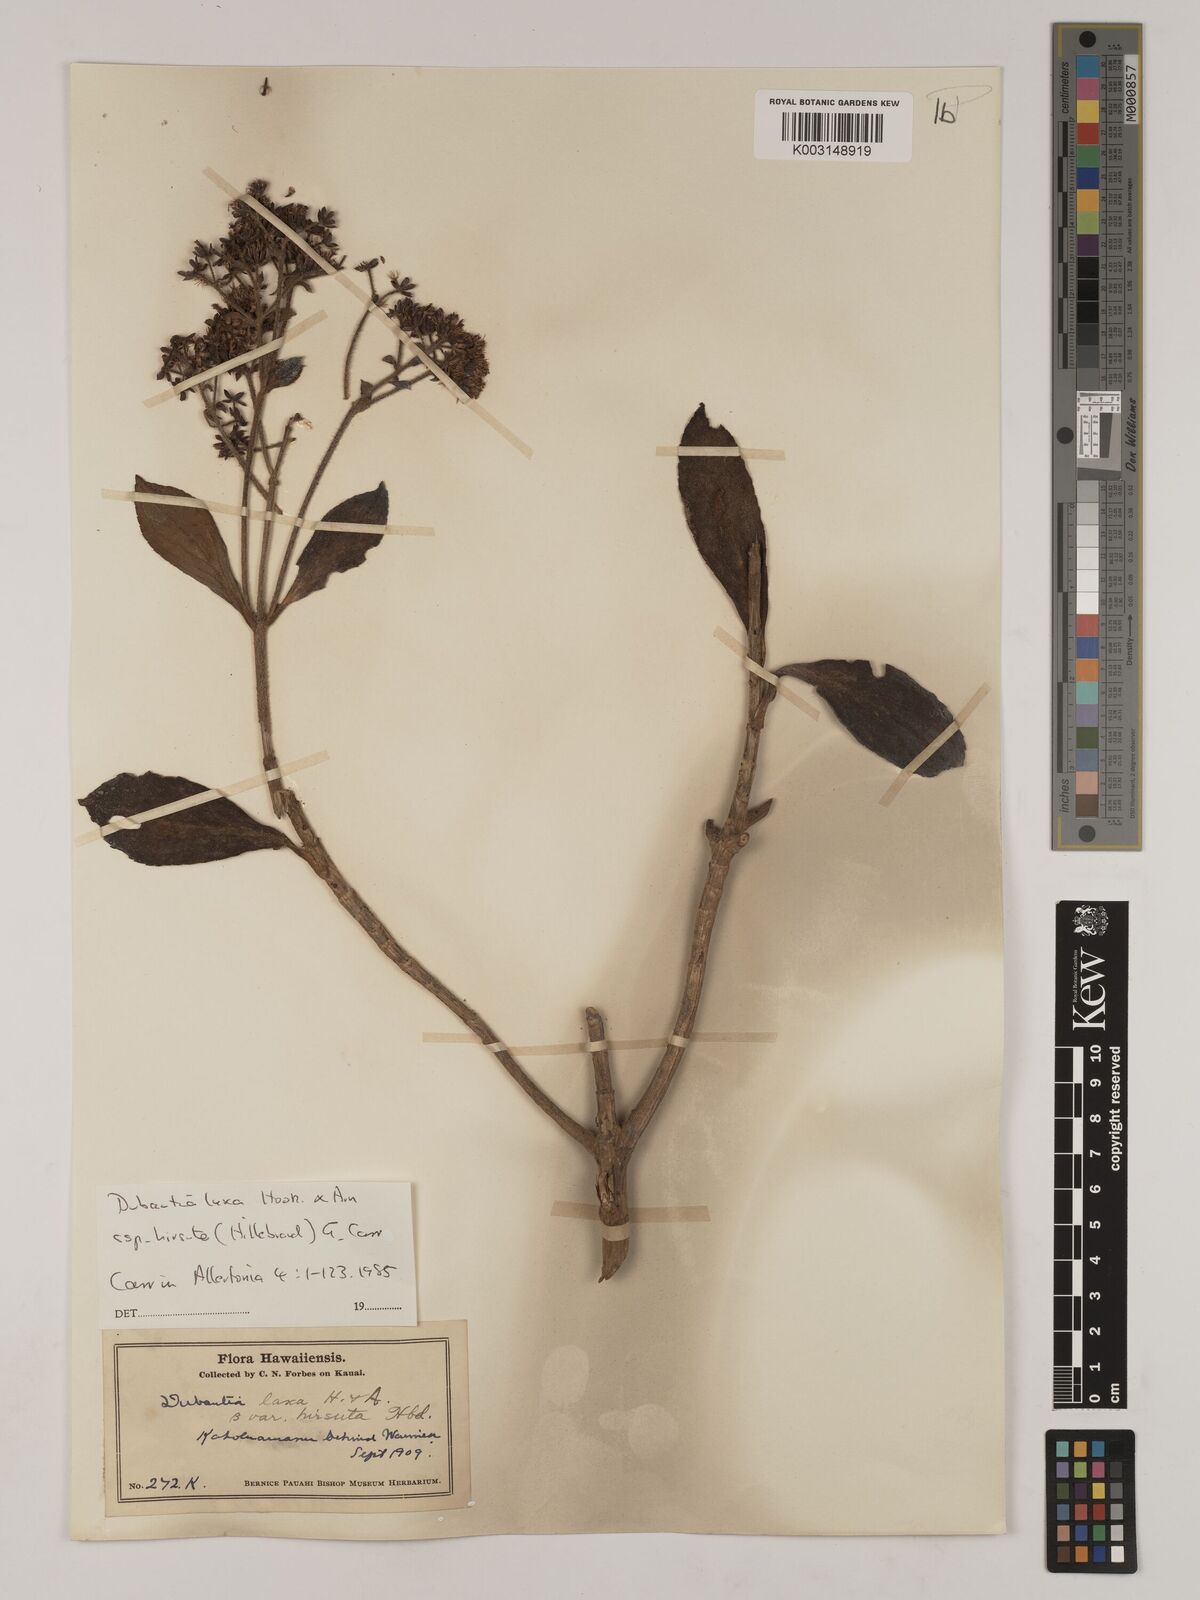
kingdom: Plantae
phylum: Tracheophyta
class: Magnoliopsida
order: Asterales
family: Asteraceae
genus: Dubautia
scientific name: Dubautia laxa
